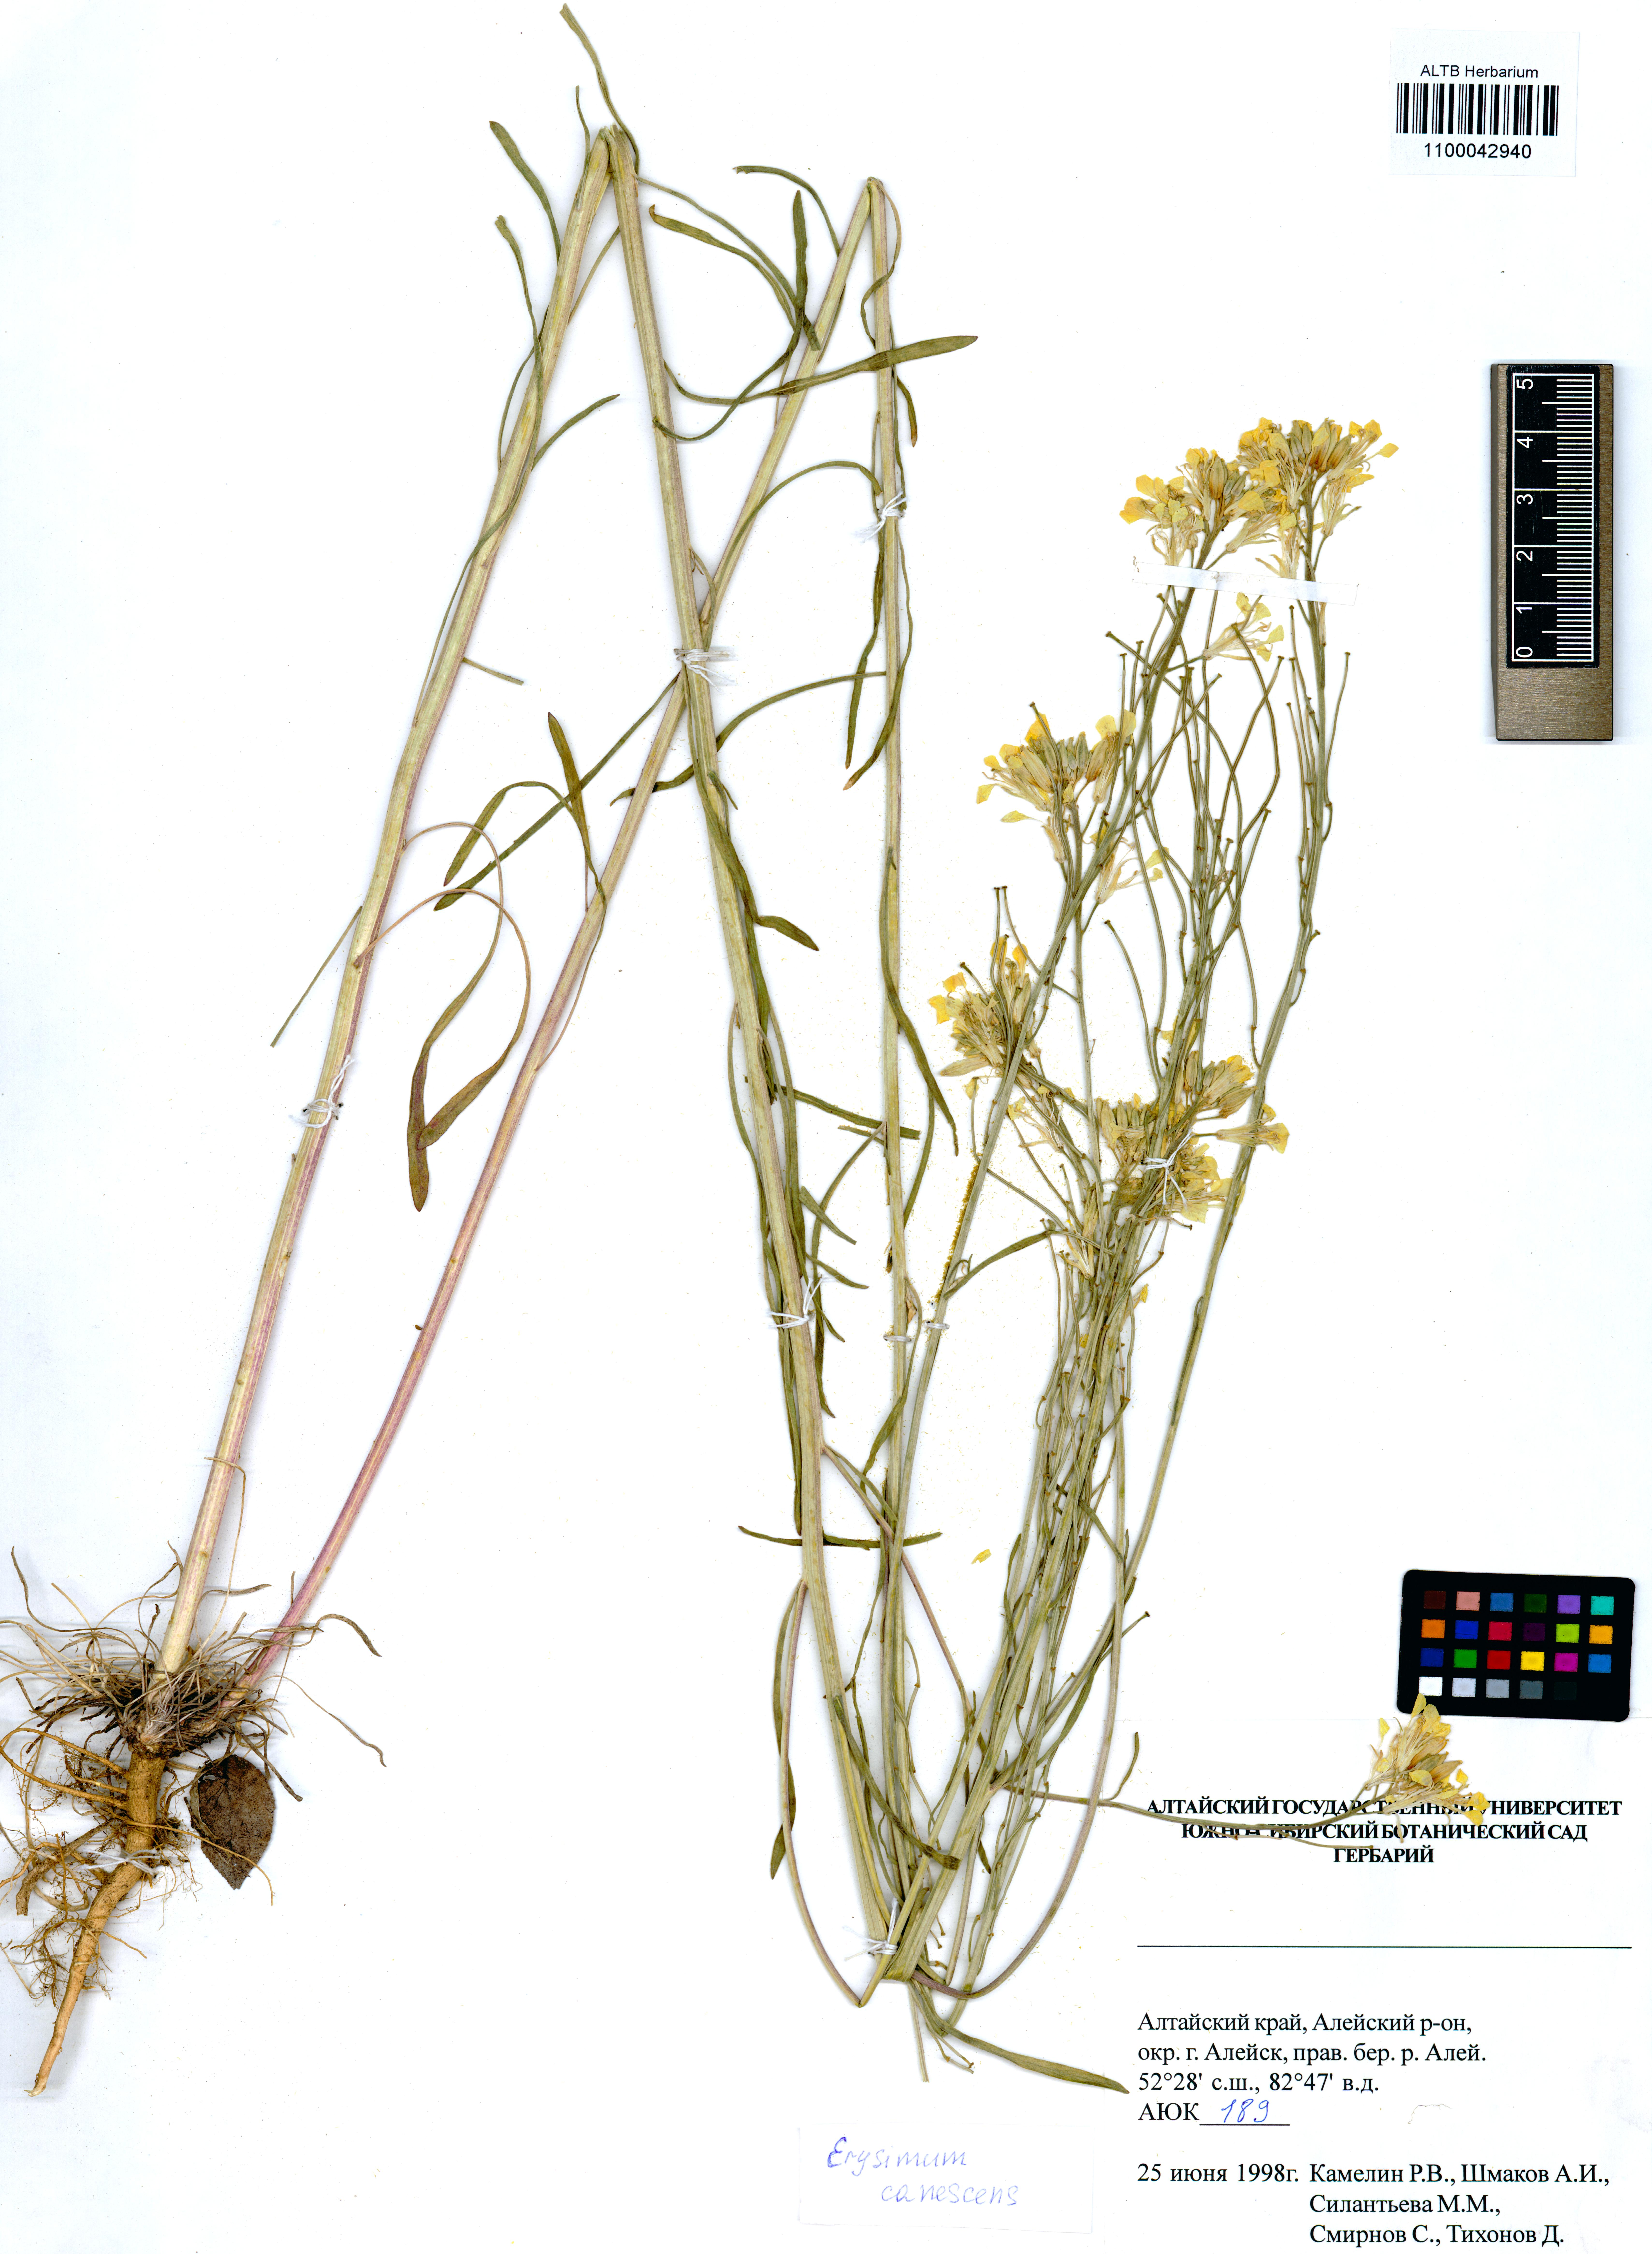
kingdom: Plantae
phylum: Tracheophyta
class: Magnoliopsida
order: Brassicales
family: Brassicaceae
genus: Erysimum
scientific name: Erysimum canescens
